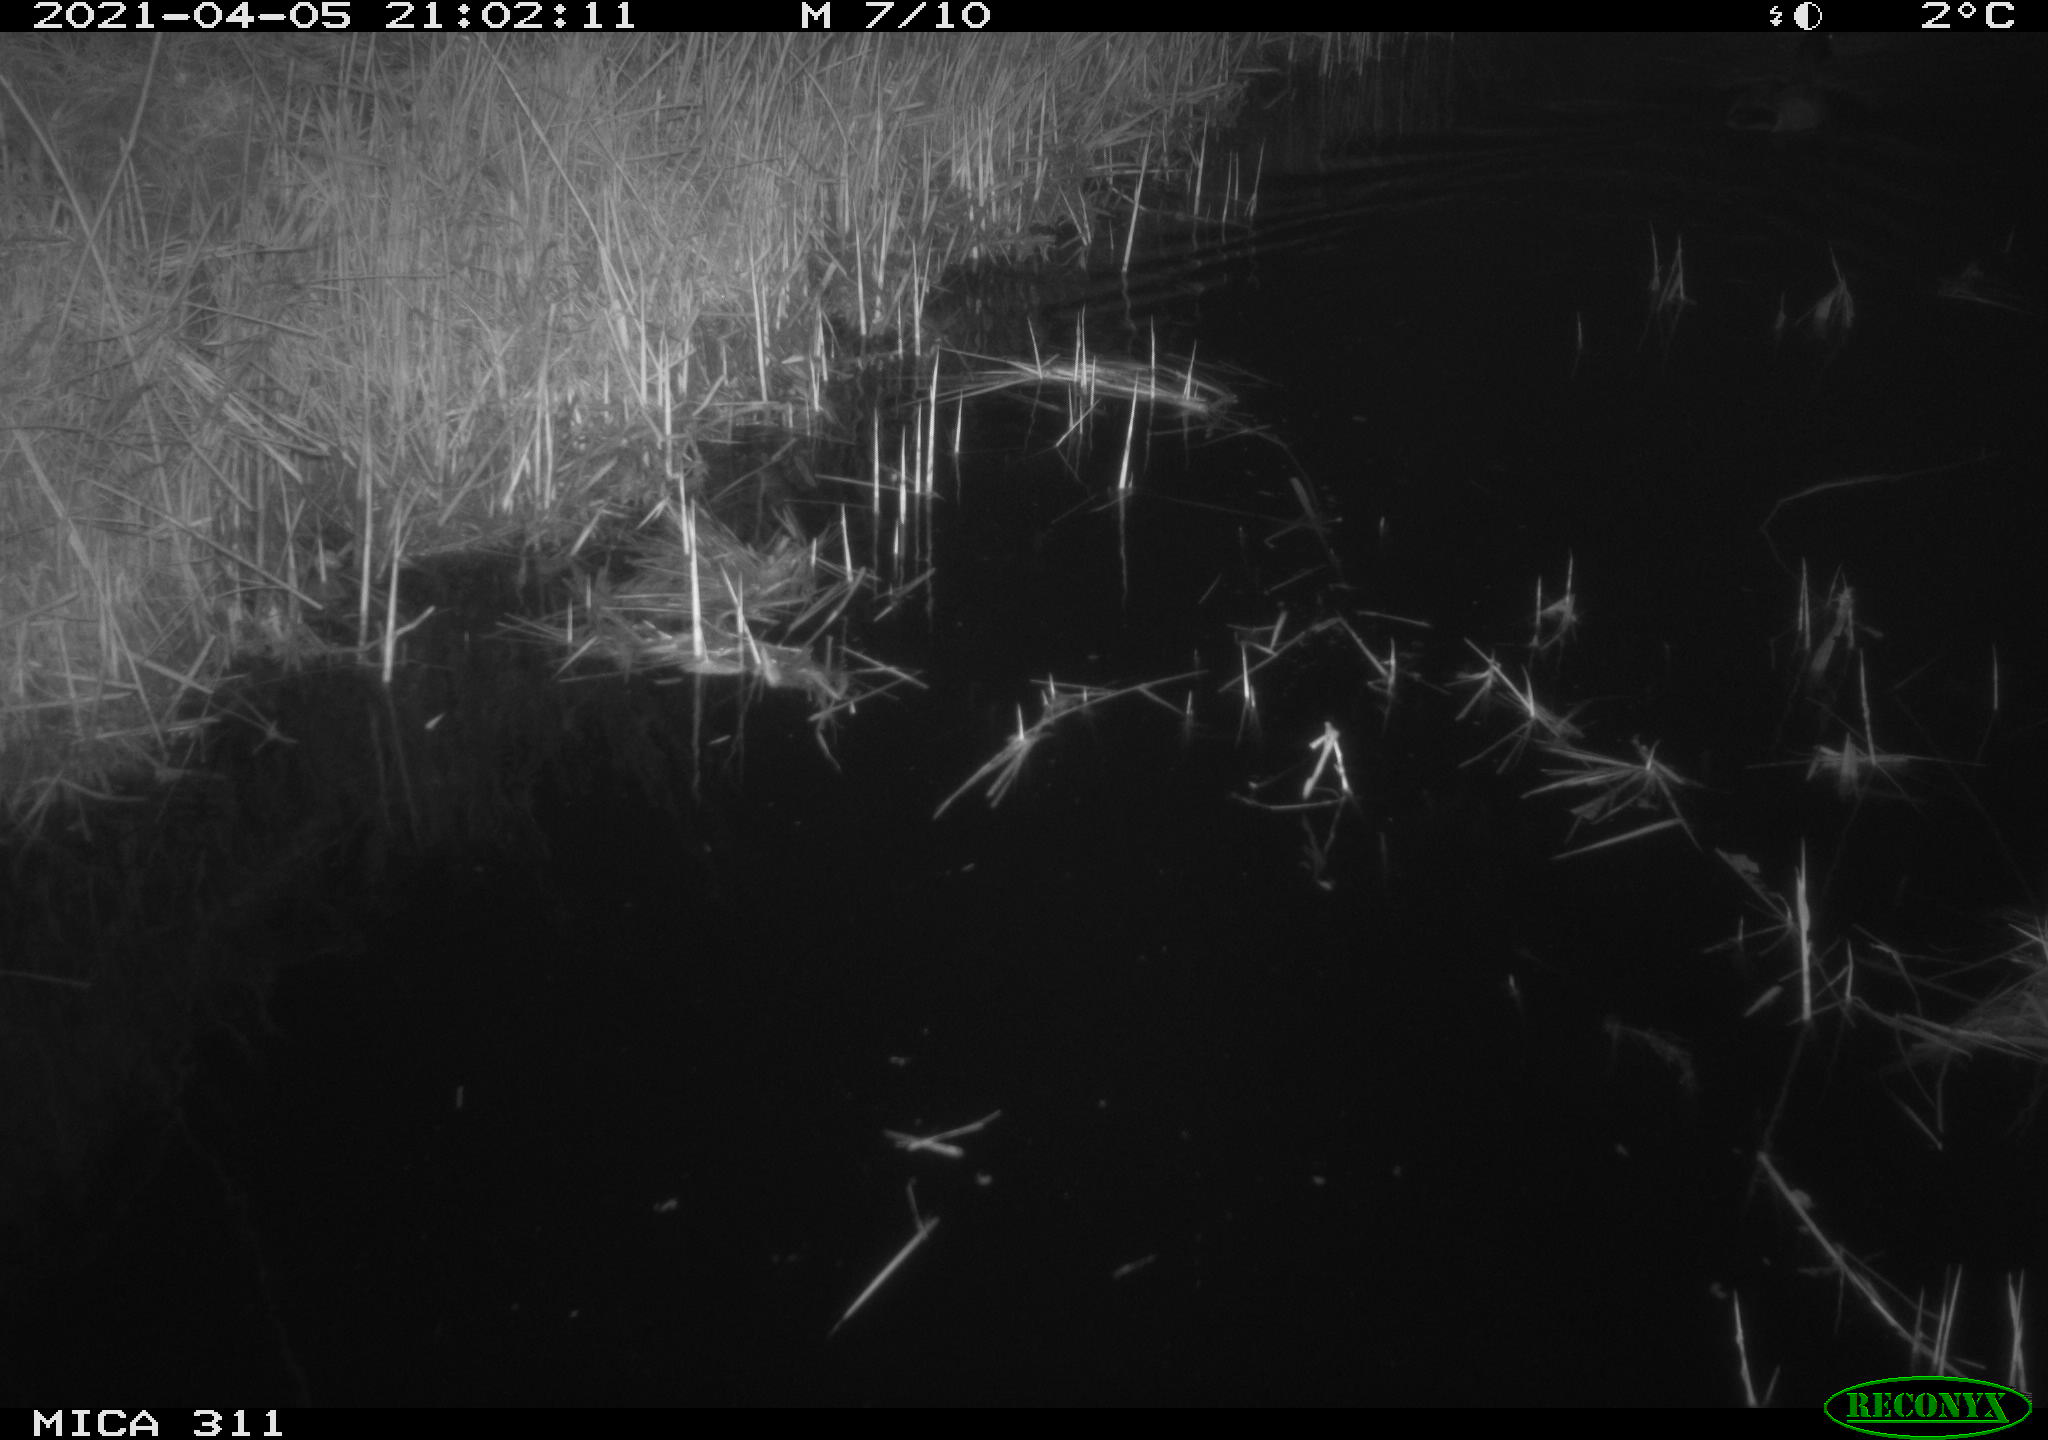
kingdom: Animalia
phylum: Chordata
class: Aves
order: Anseriformes
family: Anatidae
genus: Anas
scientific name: Anas platyrhynchos
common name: Mallard
